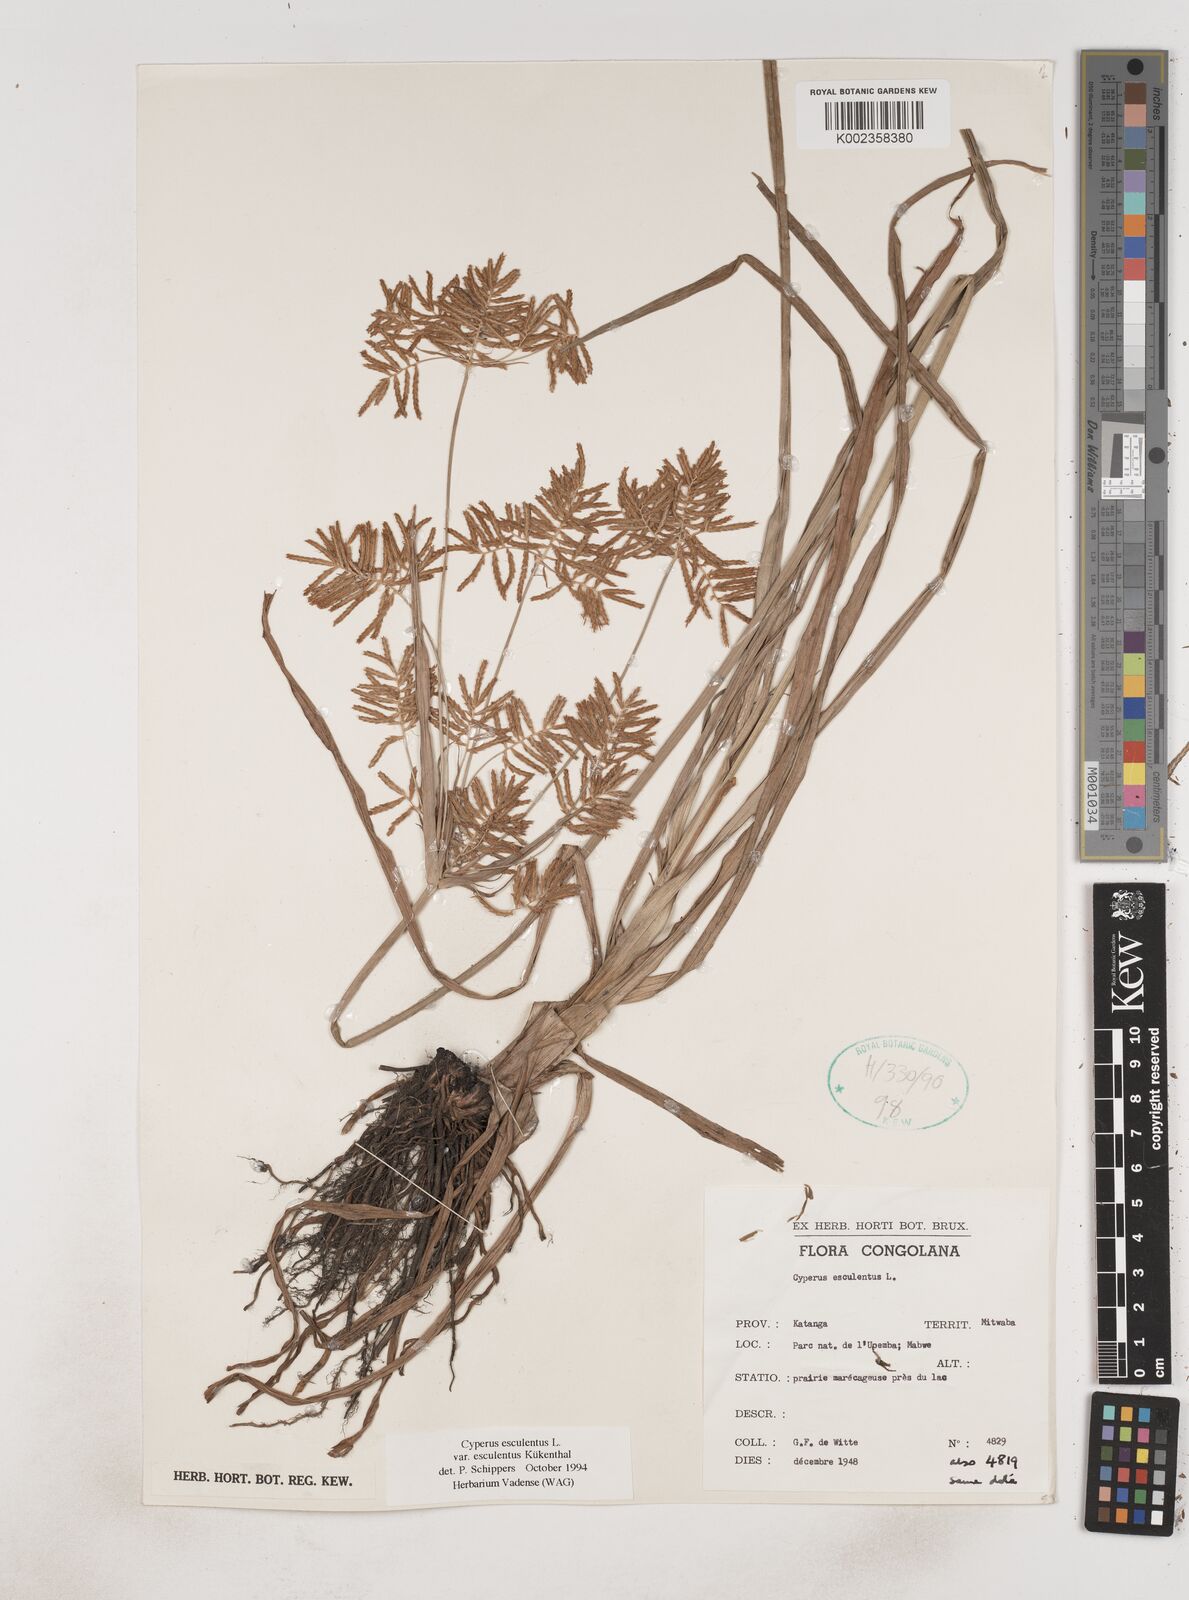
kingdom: Plantae
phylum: Tracheophyta
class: Liliopsida
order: Poales
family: Cyperaceae
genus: Cyperus
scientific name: Cyperus esculentus
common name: Yellow nutsedge
